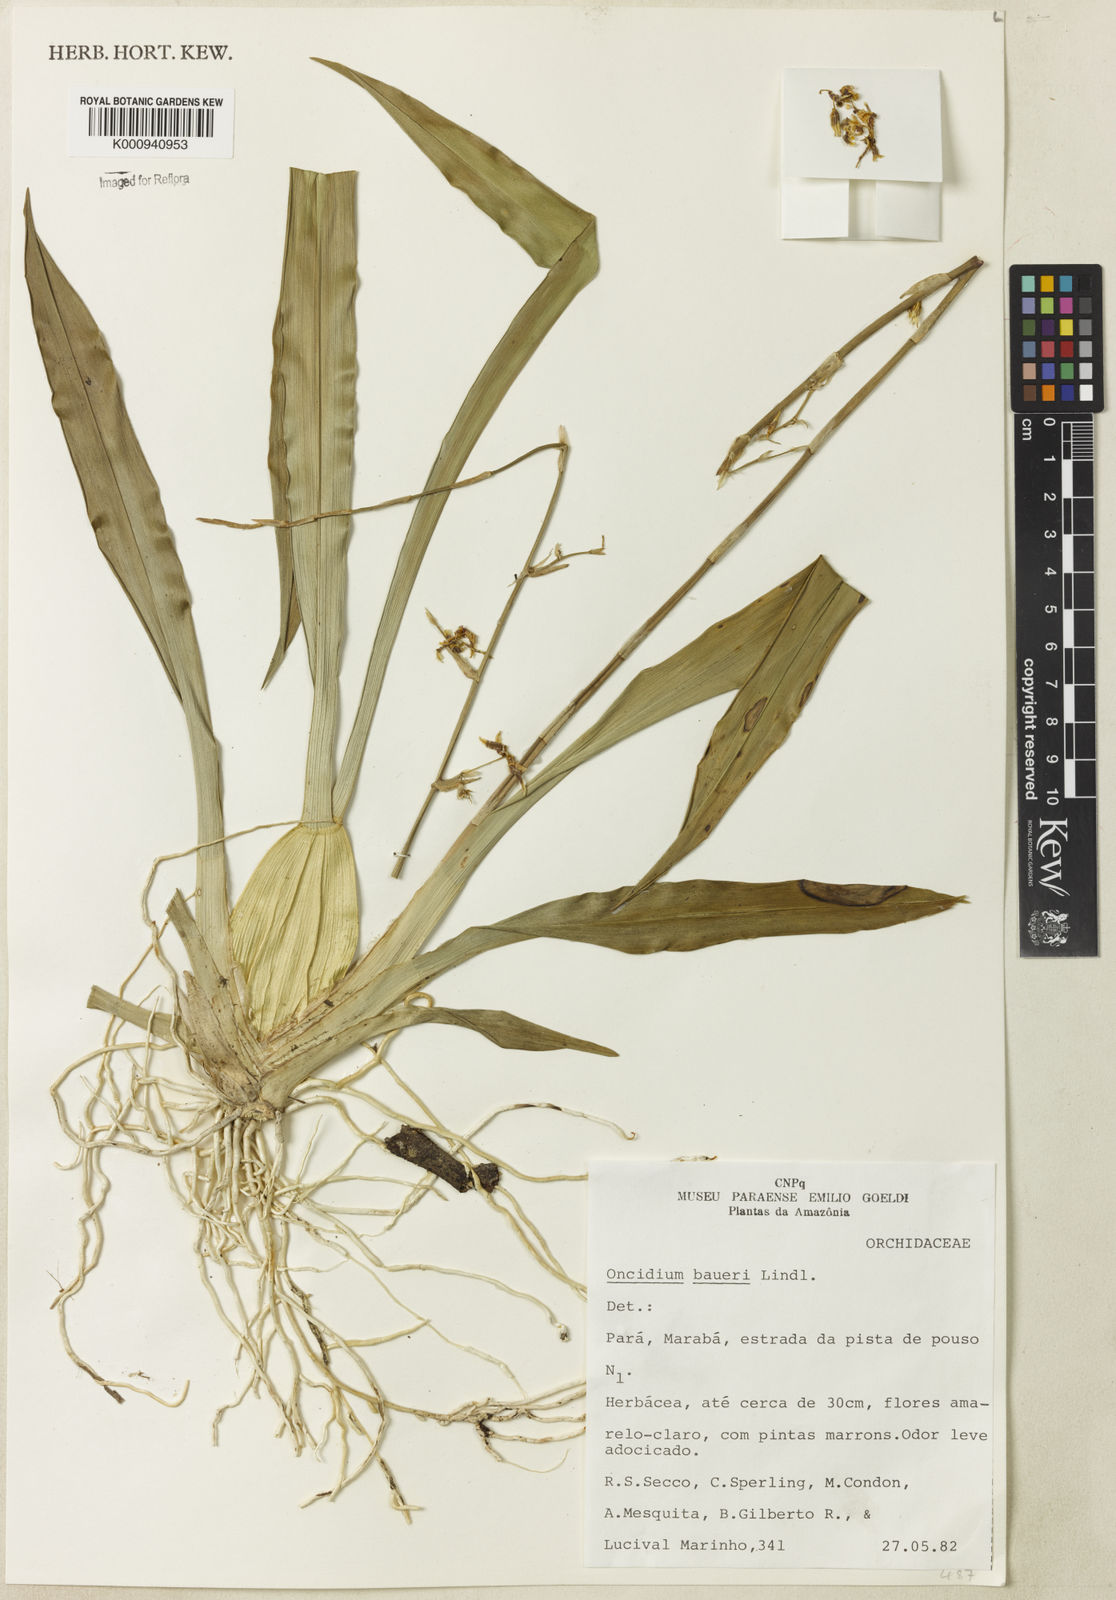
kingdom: Plantae
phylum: Tracheophyta
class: Liliopsida
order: Asparagales
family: Orchidaceae
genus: Oncidium
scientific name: Oncidium baueri
